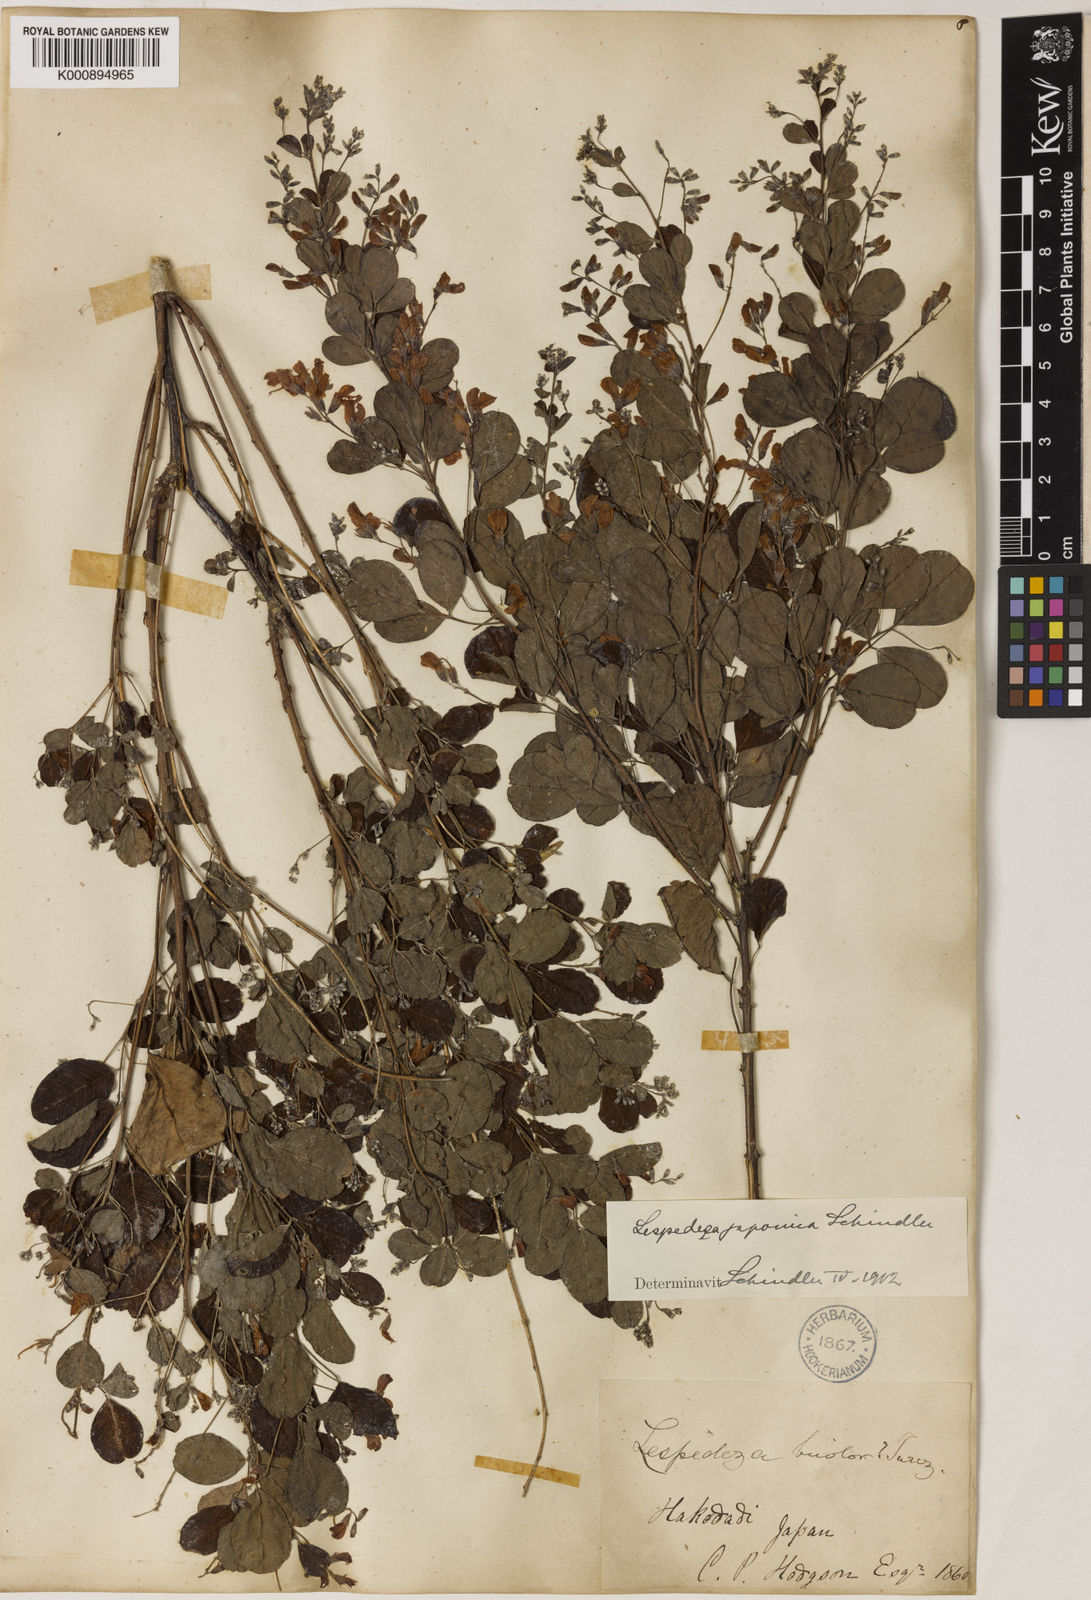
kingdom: Plantae
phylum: Tracheophyta
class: Magnoliopsida
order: Fabales
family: Fabaceae
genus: Lespedeza
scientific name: Lespedeza bicolor
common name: Shrub lespedeza
